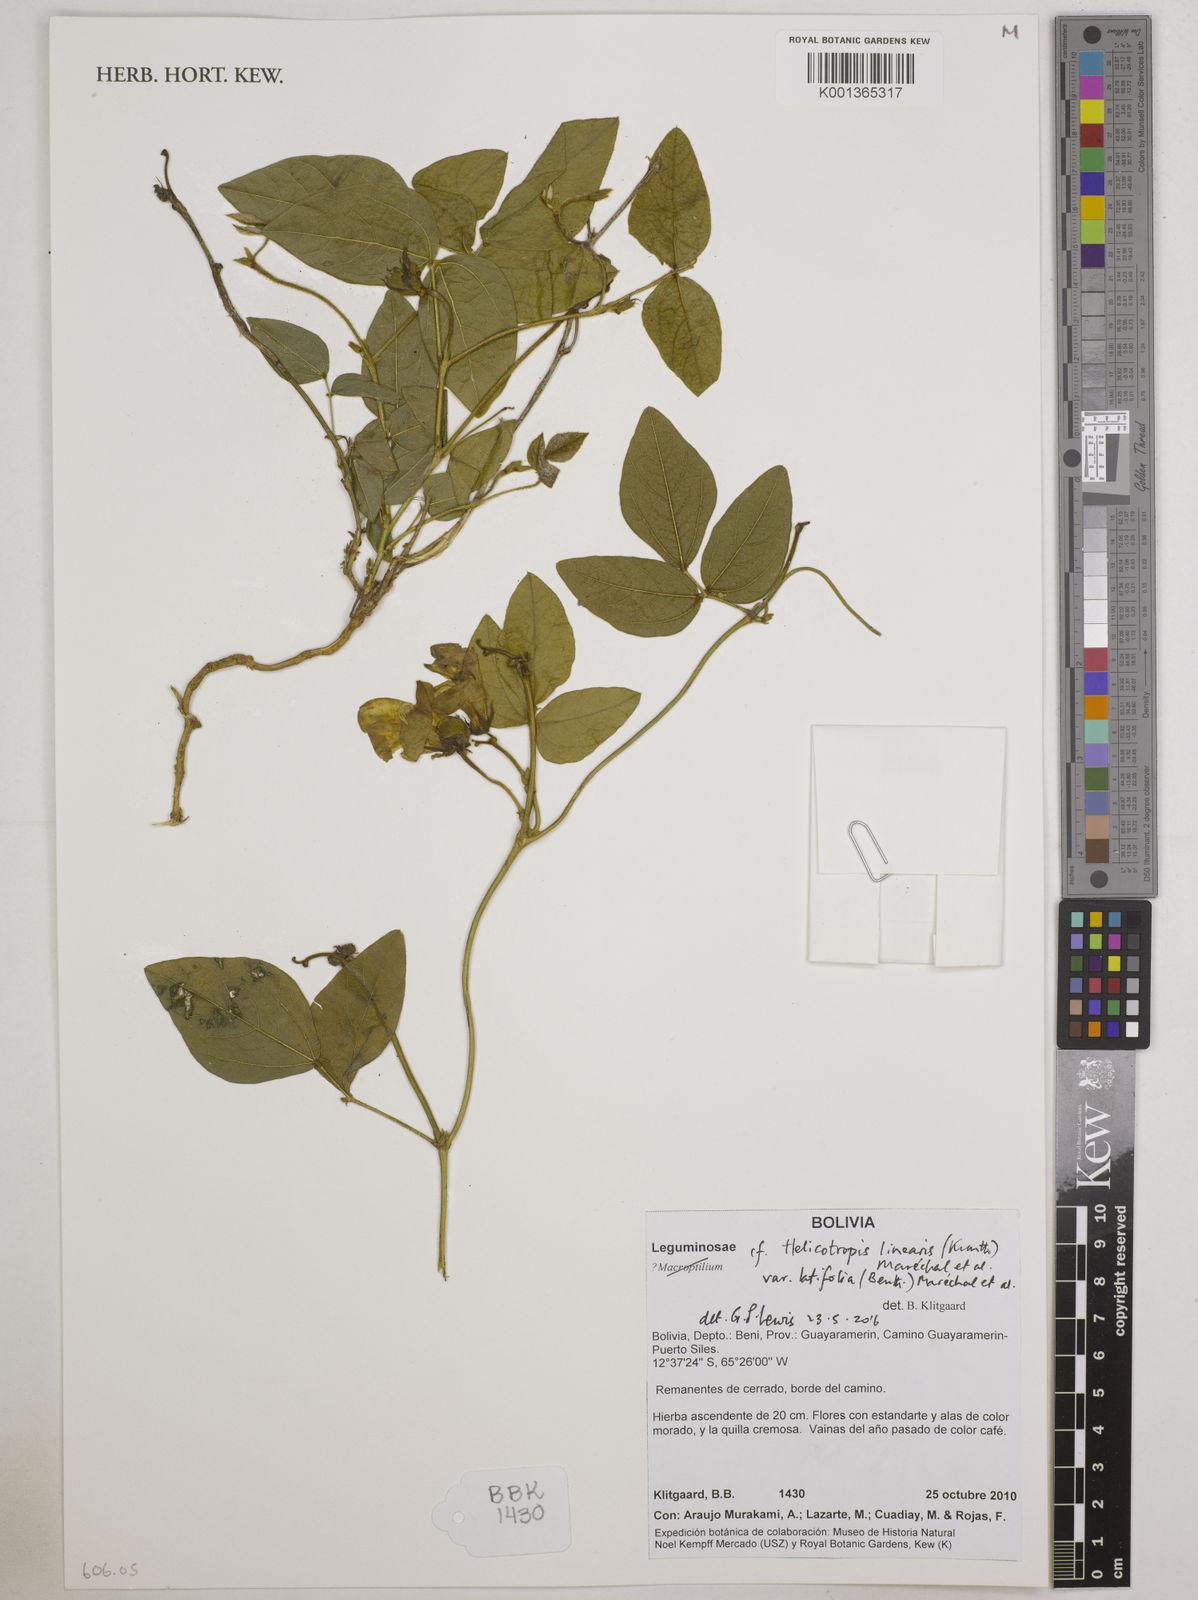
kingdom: Plantae
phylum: Tracheophyta
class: Magnoliopsida
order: Fabales
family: Fabaceae
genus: Helicotropis
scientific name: Helicotropis
